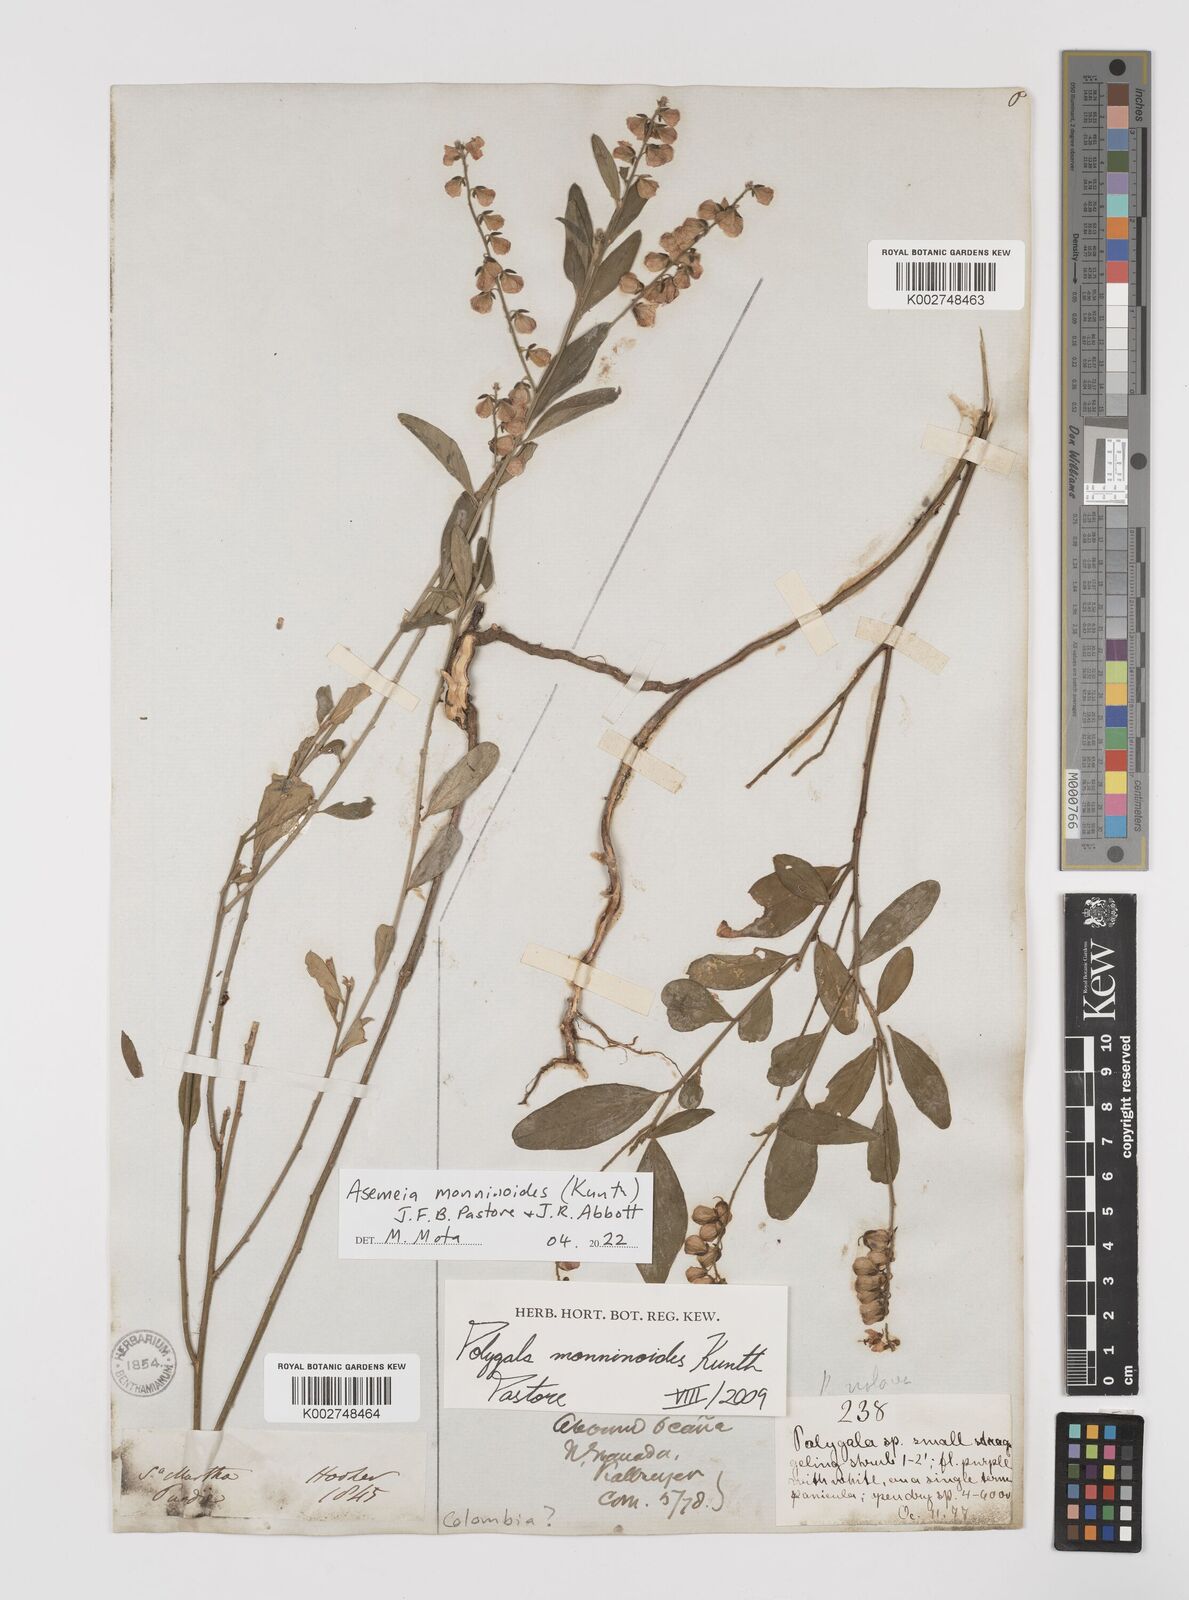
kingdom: Plantae
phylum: Tracheophyta
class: Magnoliopsida
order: Fabales
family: Polygalaceae
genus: Asemeia
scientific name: Asemeia monninoides
